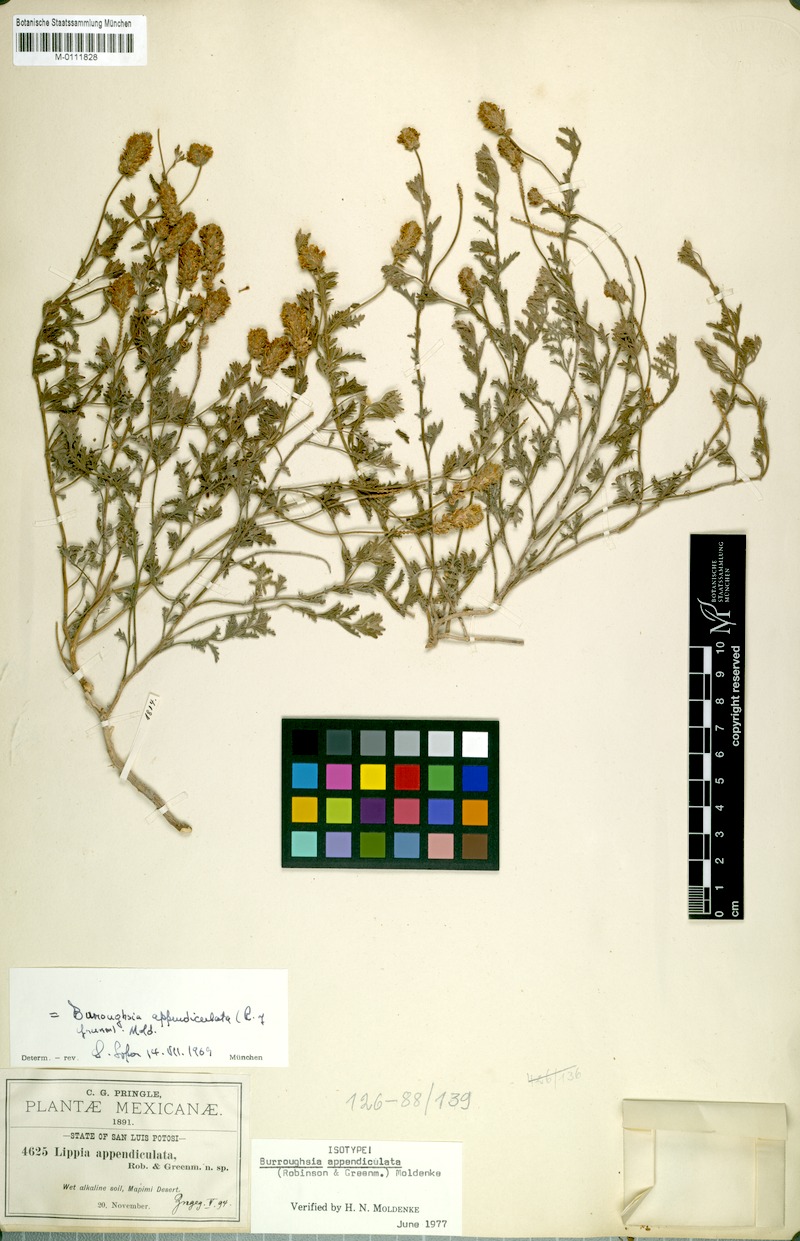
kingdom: Plantae
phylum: Tracheophyta
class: Magnoliopsida
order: Lamiales
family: Verbenaceae
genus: Lippia
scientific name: Lippia appendiculata
